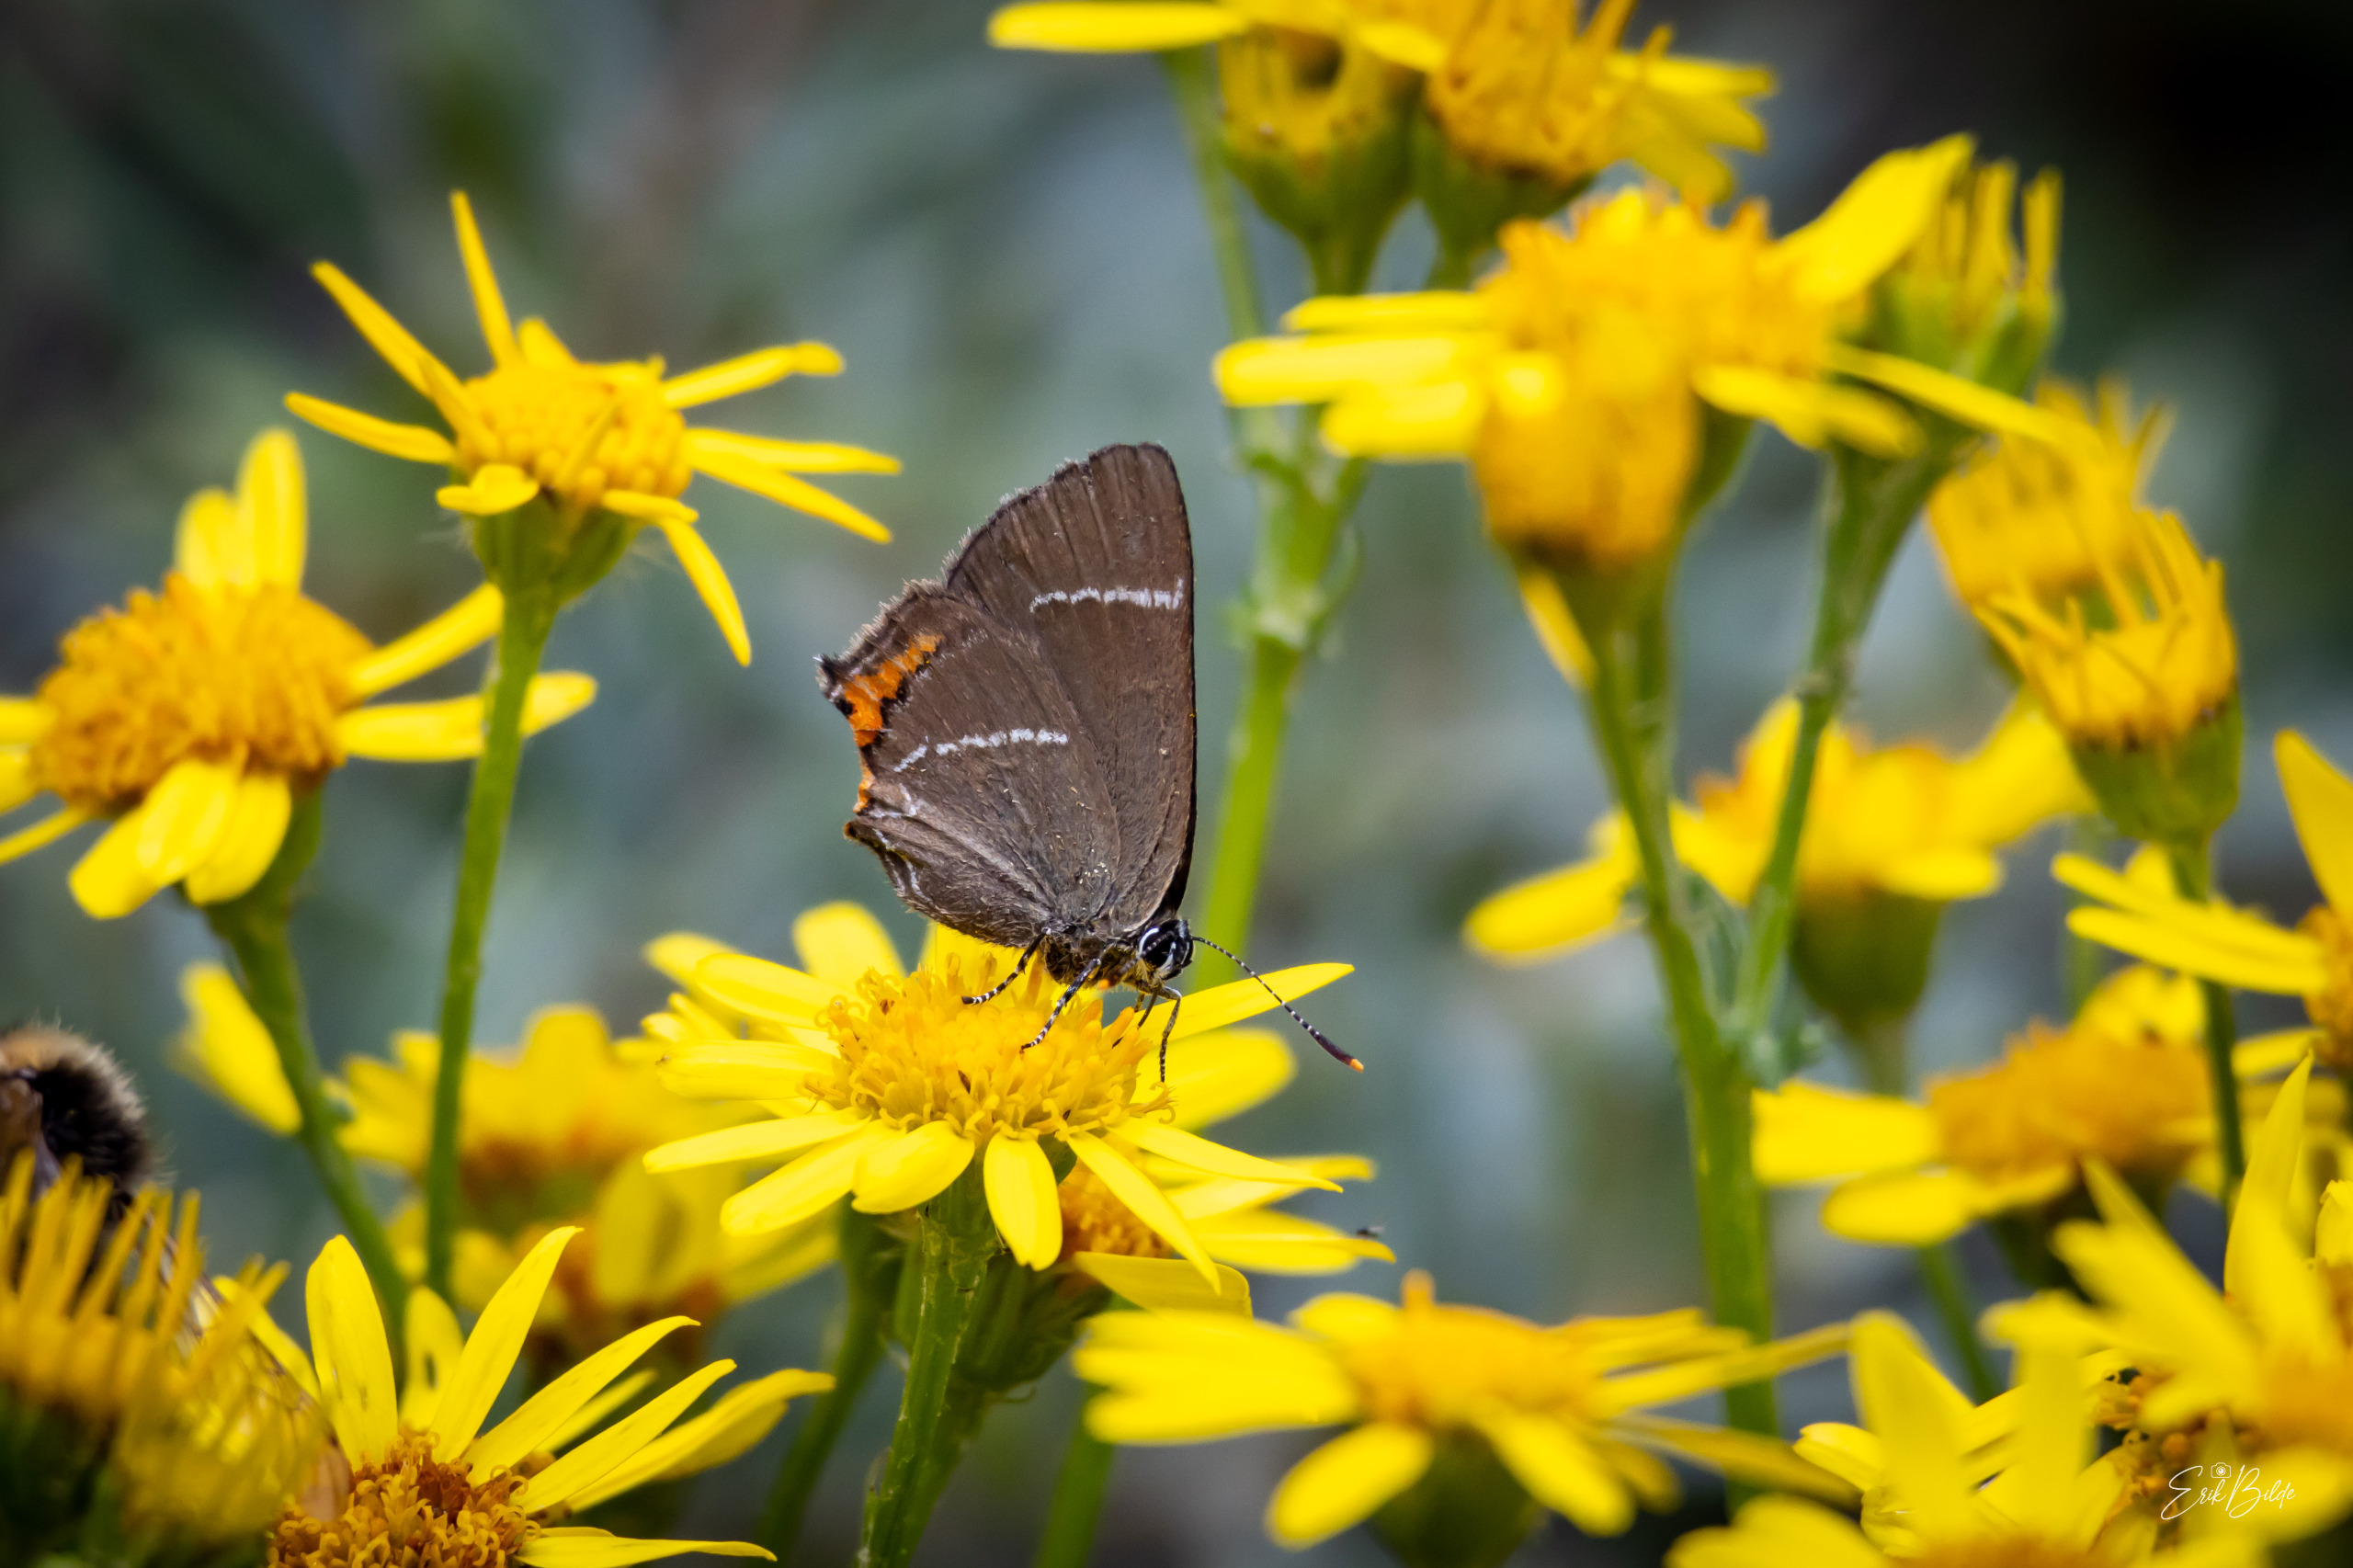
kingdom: Animalia
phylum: Arthropoda
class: Insecta
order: Lepidoptera
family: Lycaenidae
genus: Satyrium
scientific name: Satyrium w-album
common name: Det hvide W
